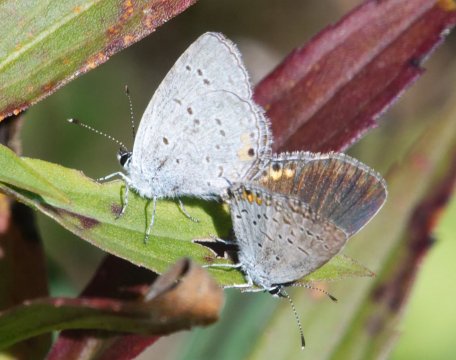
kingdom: Animalia
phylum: Arthropoda
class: Insecta
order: Lepidoptera
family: Lycaenidae
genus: Elkalyce
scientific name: Elkalyce comyntas
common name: Eastern Tailed-Blue
